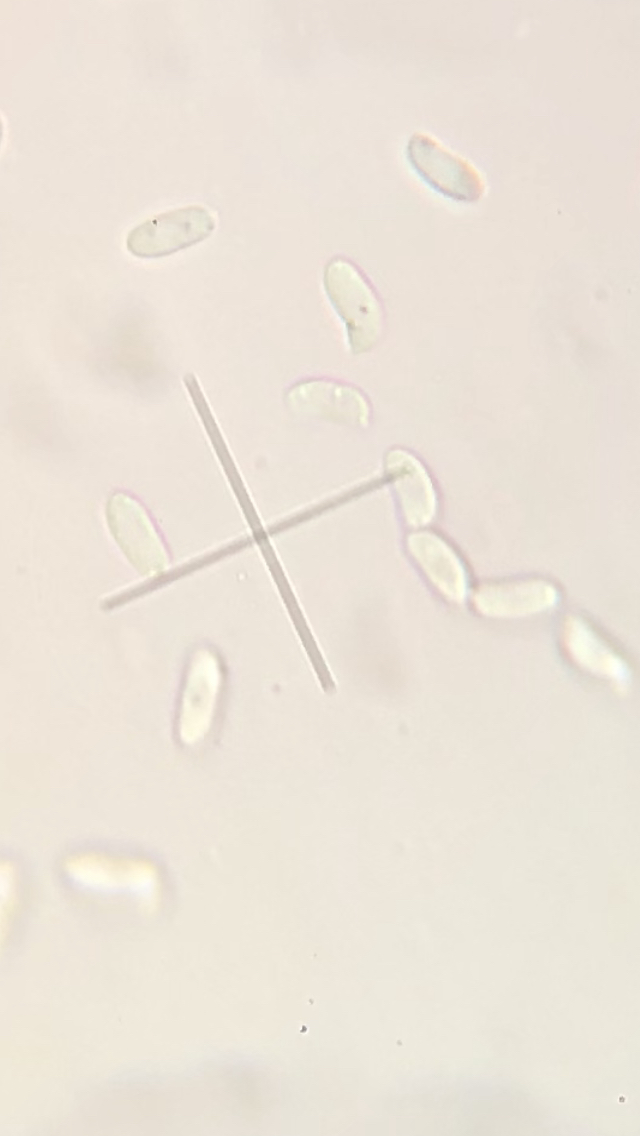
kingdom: Fungi
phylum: Basidiomycota
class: Agaricomycetes
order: Polyporales
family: Polyporaceae
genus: Trametes
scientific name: Trametes ochracea
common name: bæltet læderporesvamp
